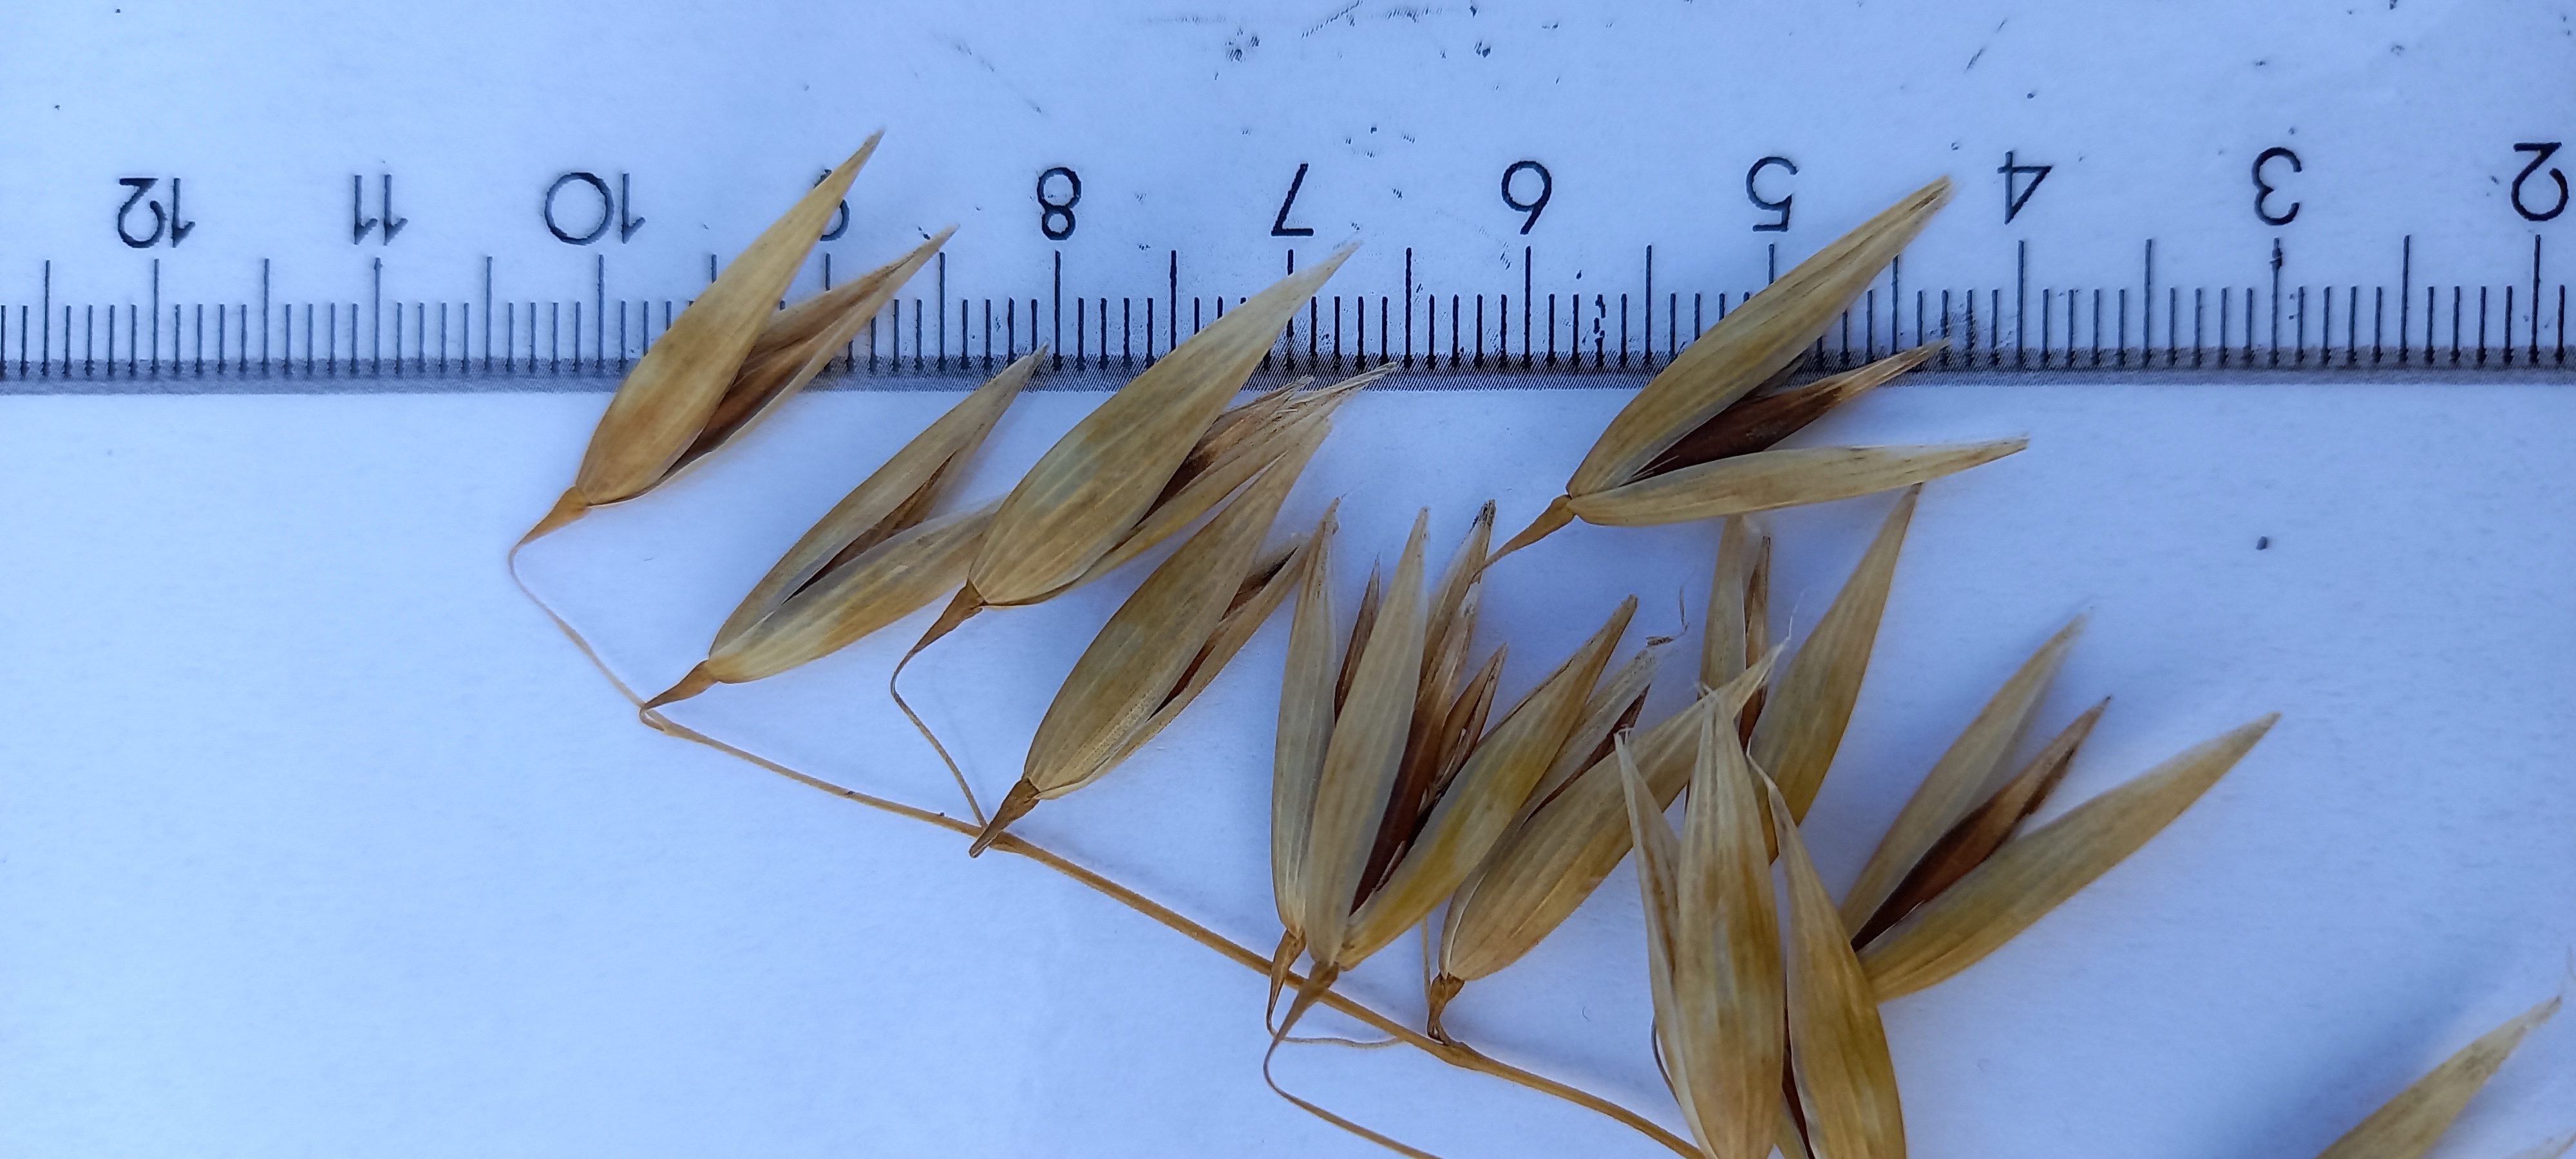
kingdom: Plantae
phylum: Tracheophyta
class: Liliopsida
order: Poales
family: Poaceae
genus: Avena
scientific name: Avena sativa
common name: Oat
